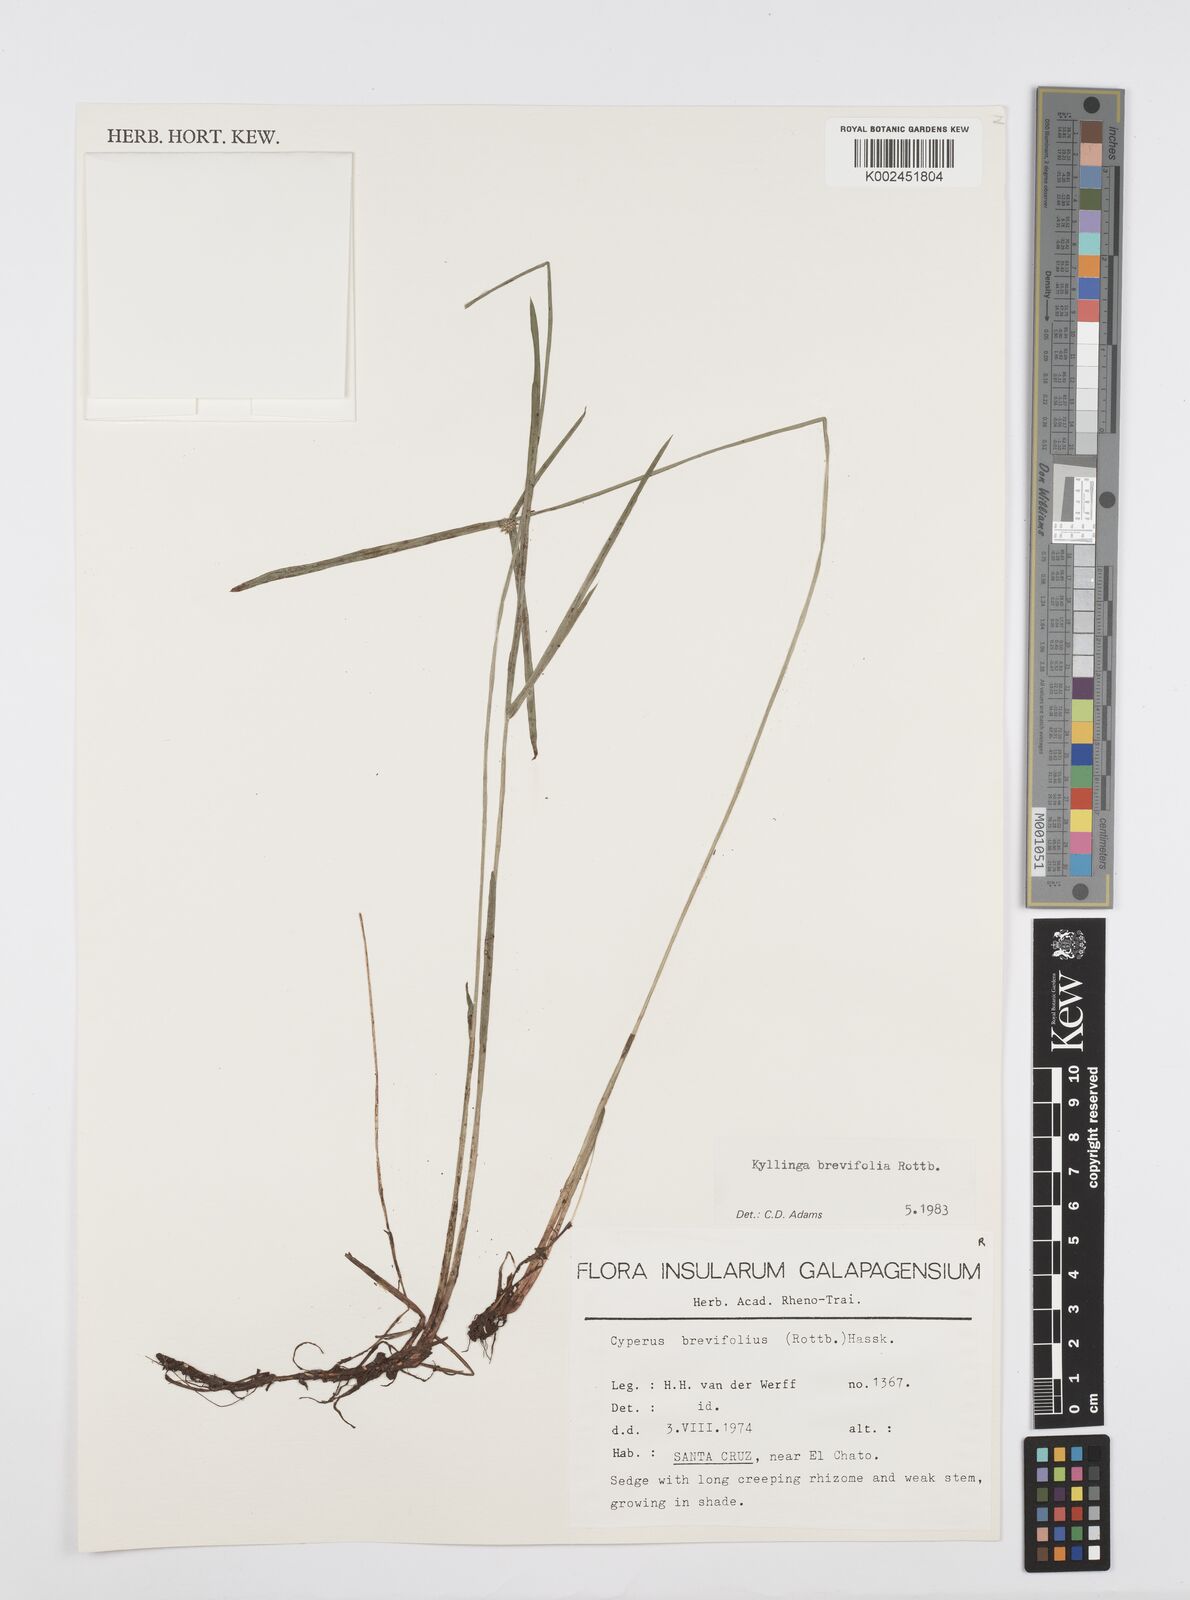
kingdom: Plantae
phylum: Tracheophyta
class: Liliopsida
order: Poales
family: Cyperaceae
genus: Cyperus
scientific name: Cyperus brevifolius
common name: Globe kyllinga
